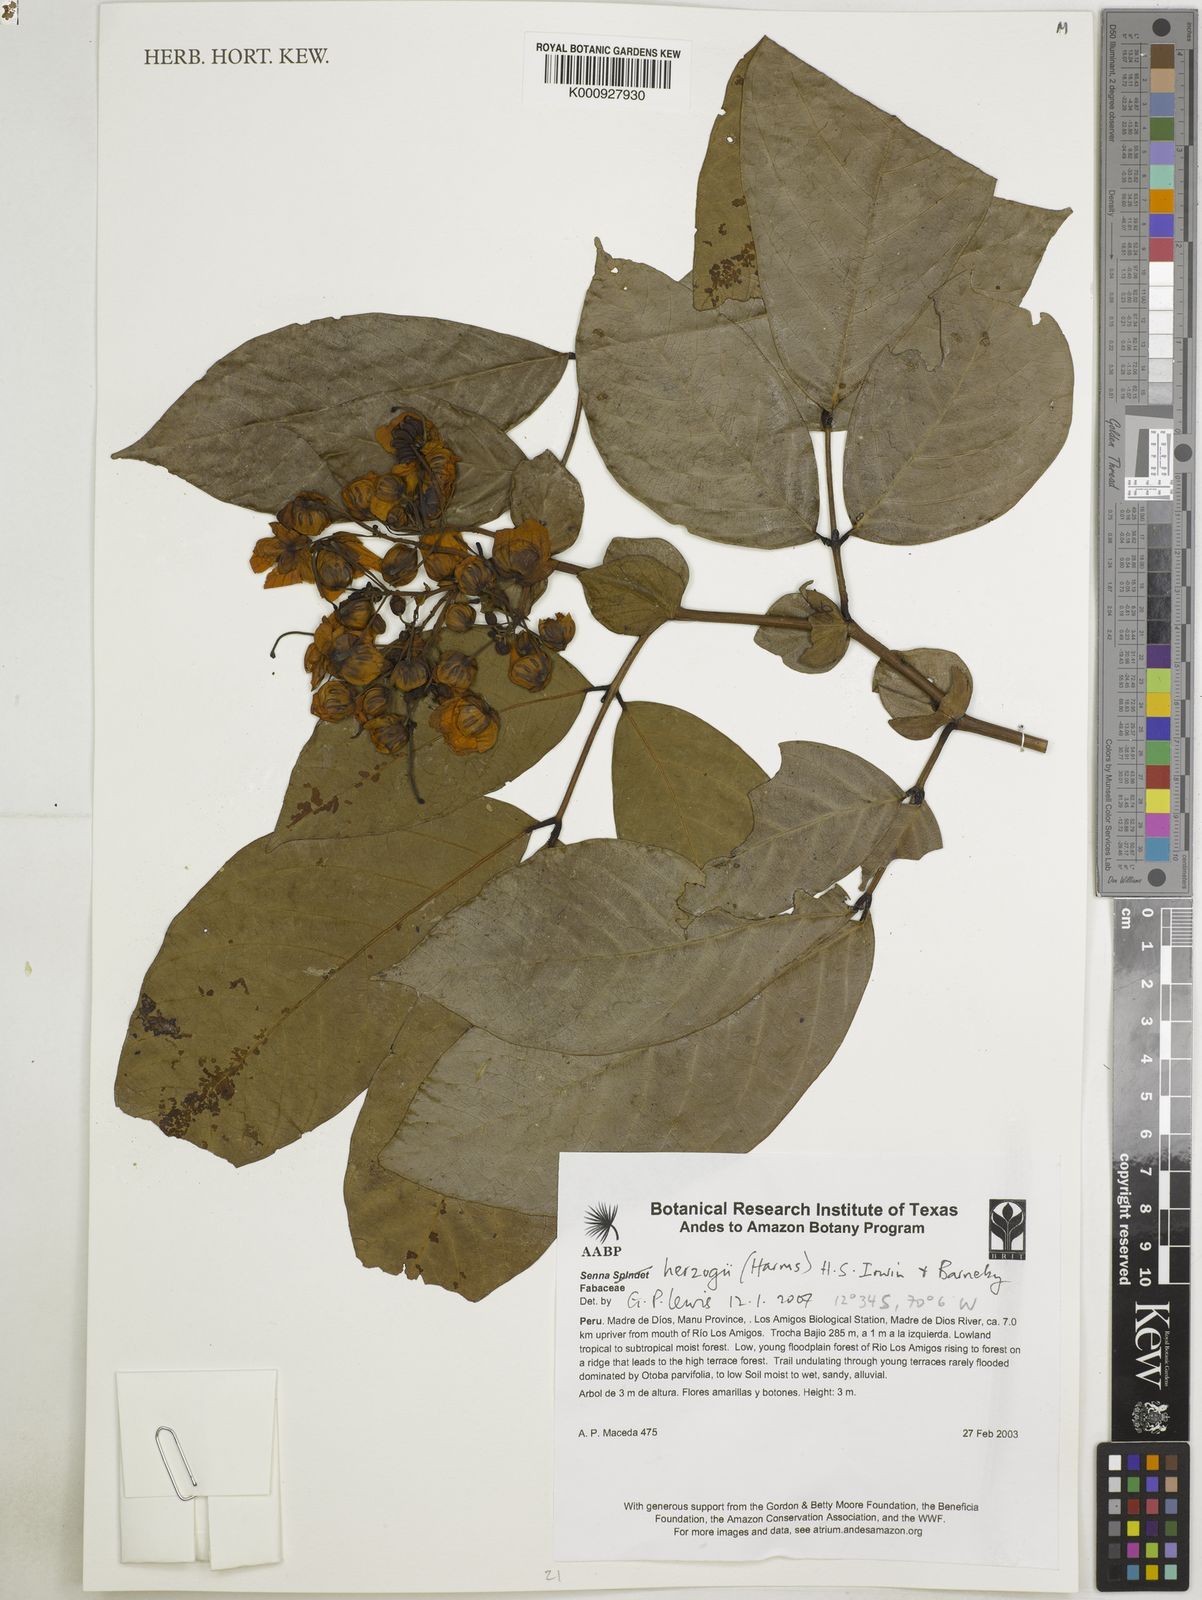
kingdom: Plantae
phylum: Tracheophyta
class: Magnoliopsida
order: Fabales
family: Fabaceae
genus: Senna
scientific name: Senna herzogii
